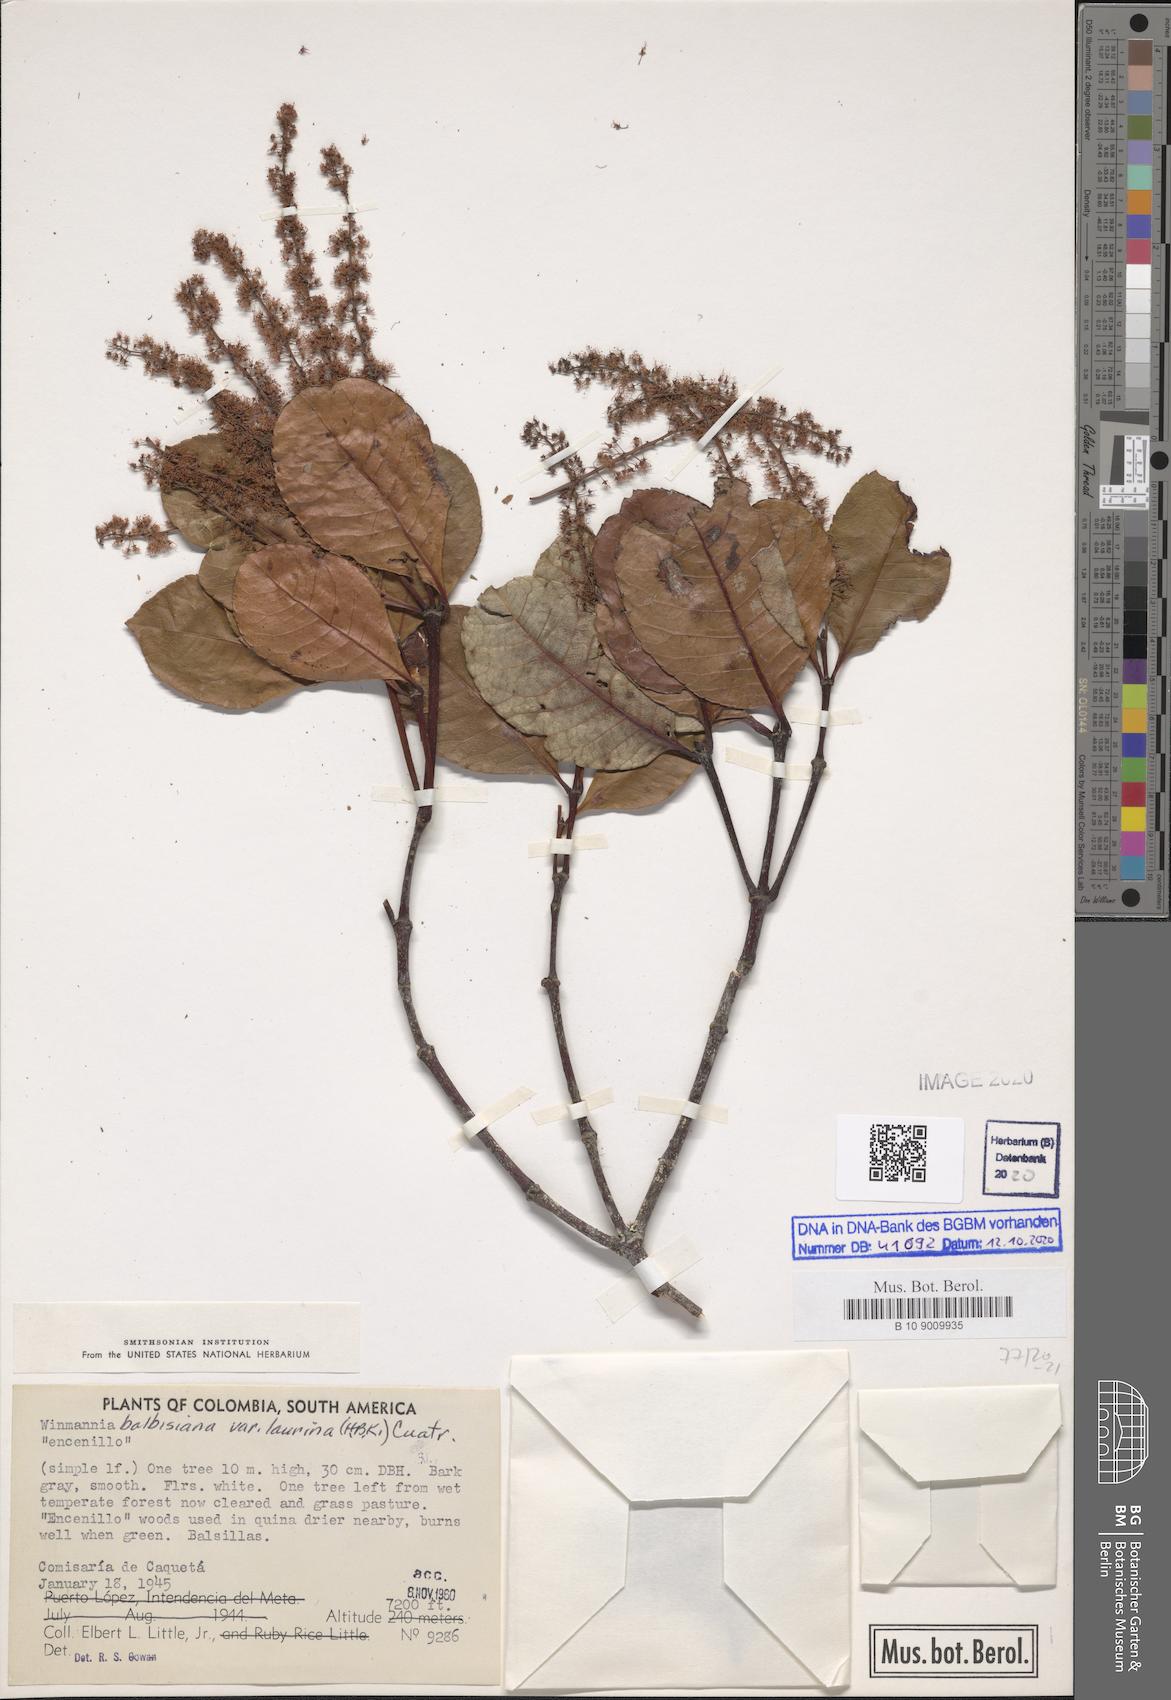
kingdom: Plantae
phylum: Tracheophyta
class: Magnoliopsida
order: Oxalidales
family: Cunoniaceae
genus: Weinmannia
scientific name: Weinmannia balbisana
